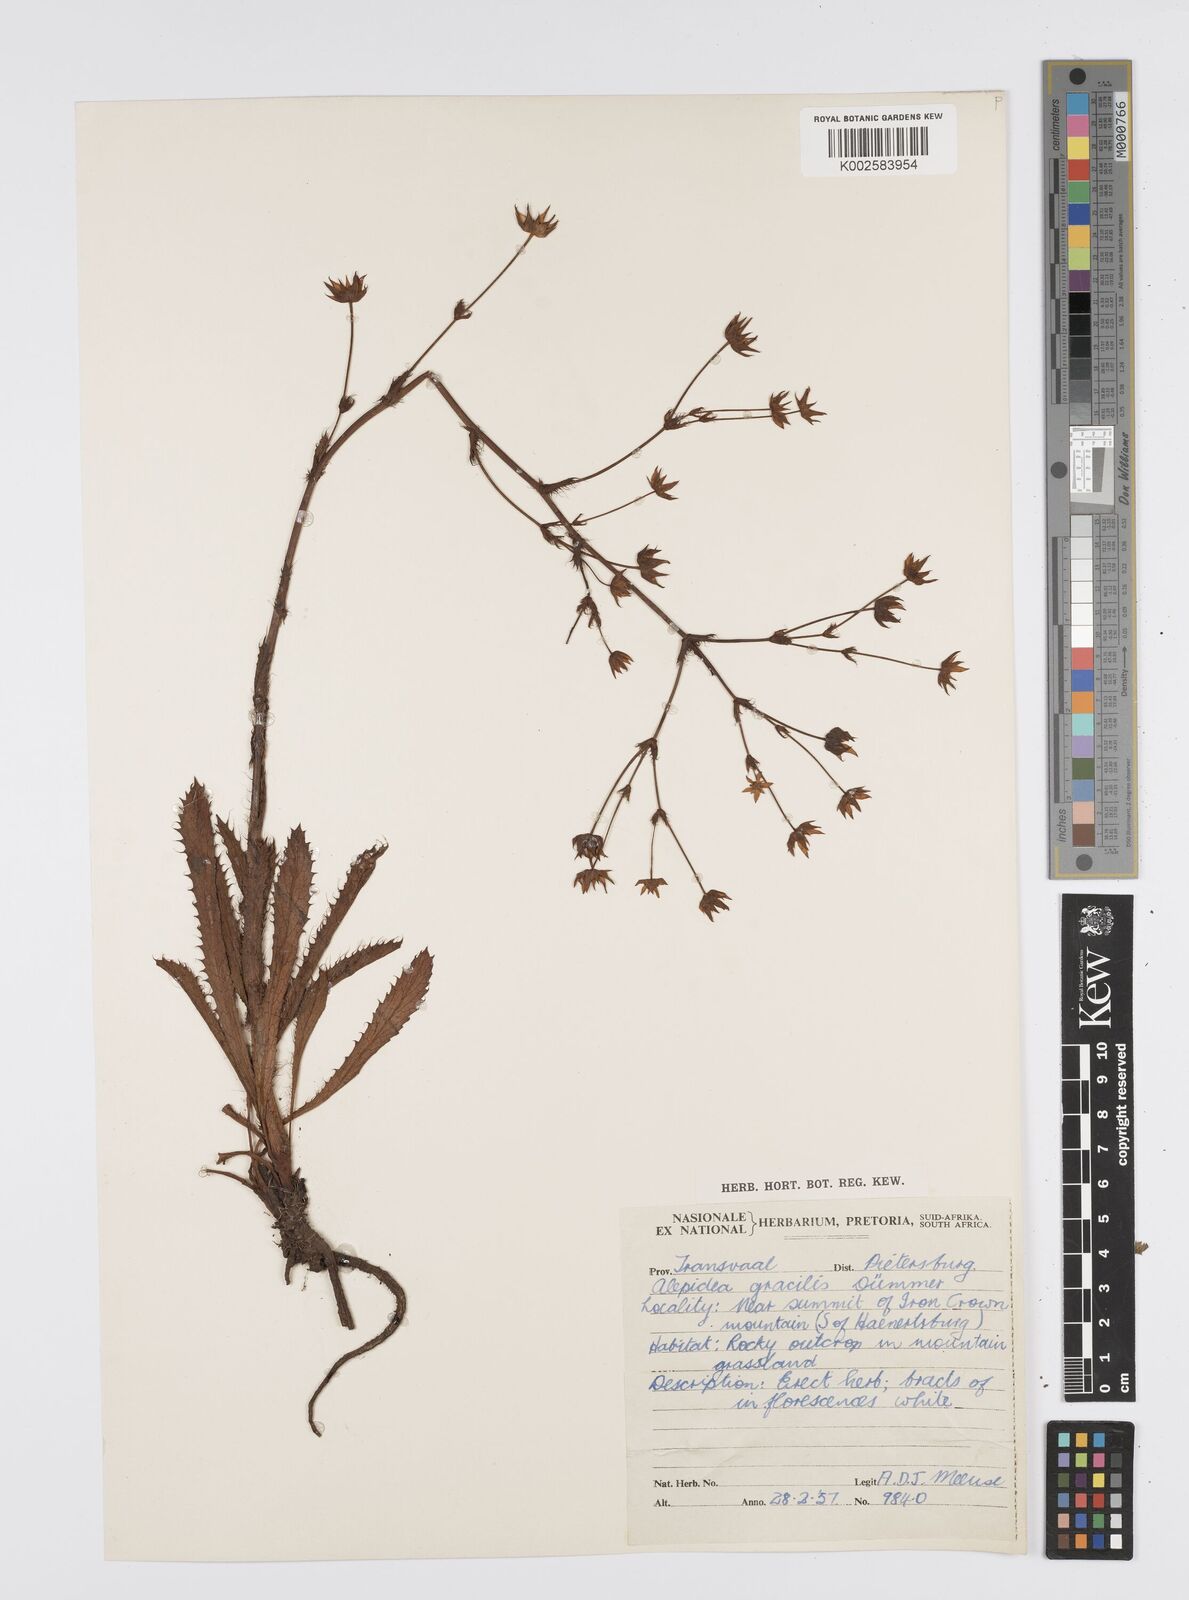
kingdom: Plantae
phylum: Tracheophyta
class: Magnoliopsida
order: Apiales
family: Apiaceae
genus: Alepidea
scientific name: Alepidea peduncularis
